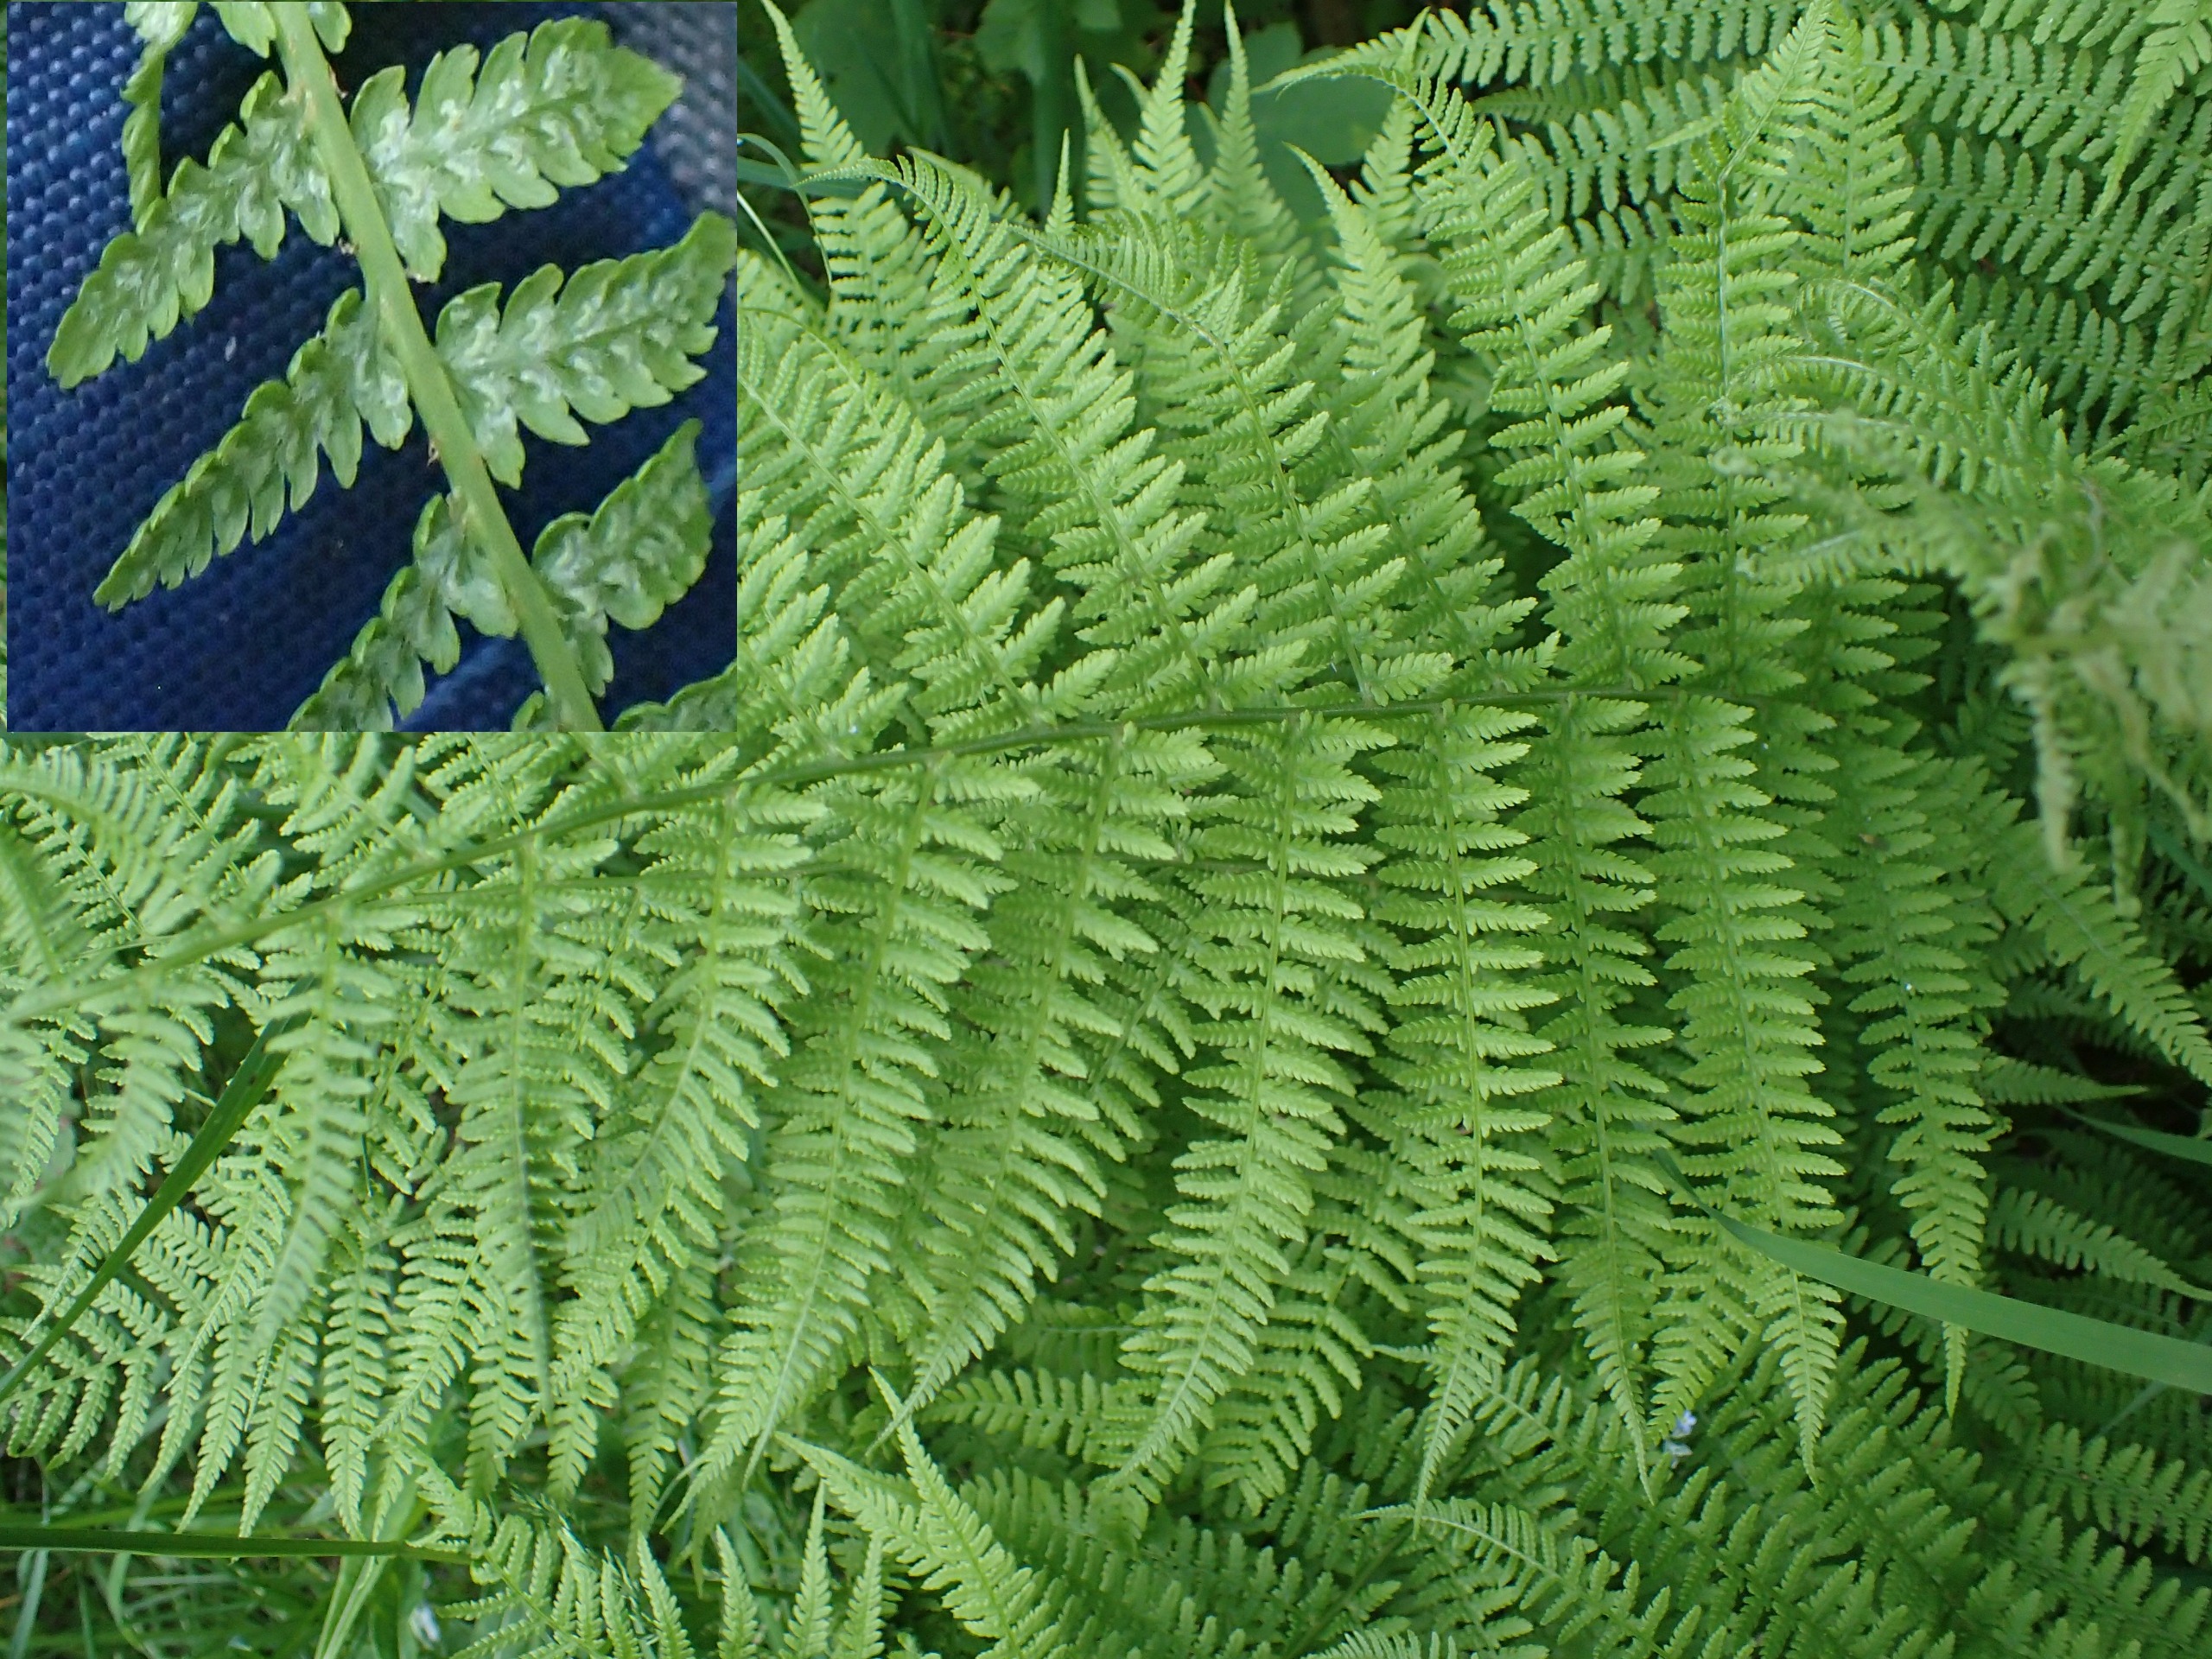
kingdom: Plantae
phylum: Tracheophyta
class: Polypodiopsida
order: Polypodiales
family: Athyriaceae
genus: Athyrium
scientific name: Athyrium filix-femina
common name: Fjerbregne
